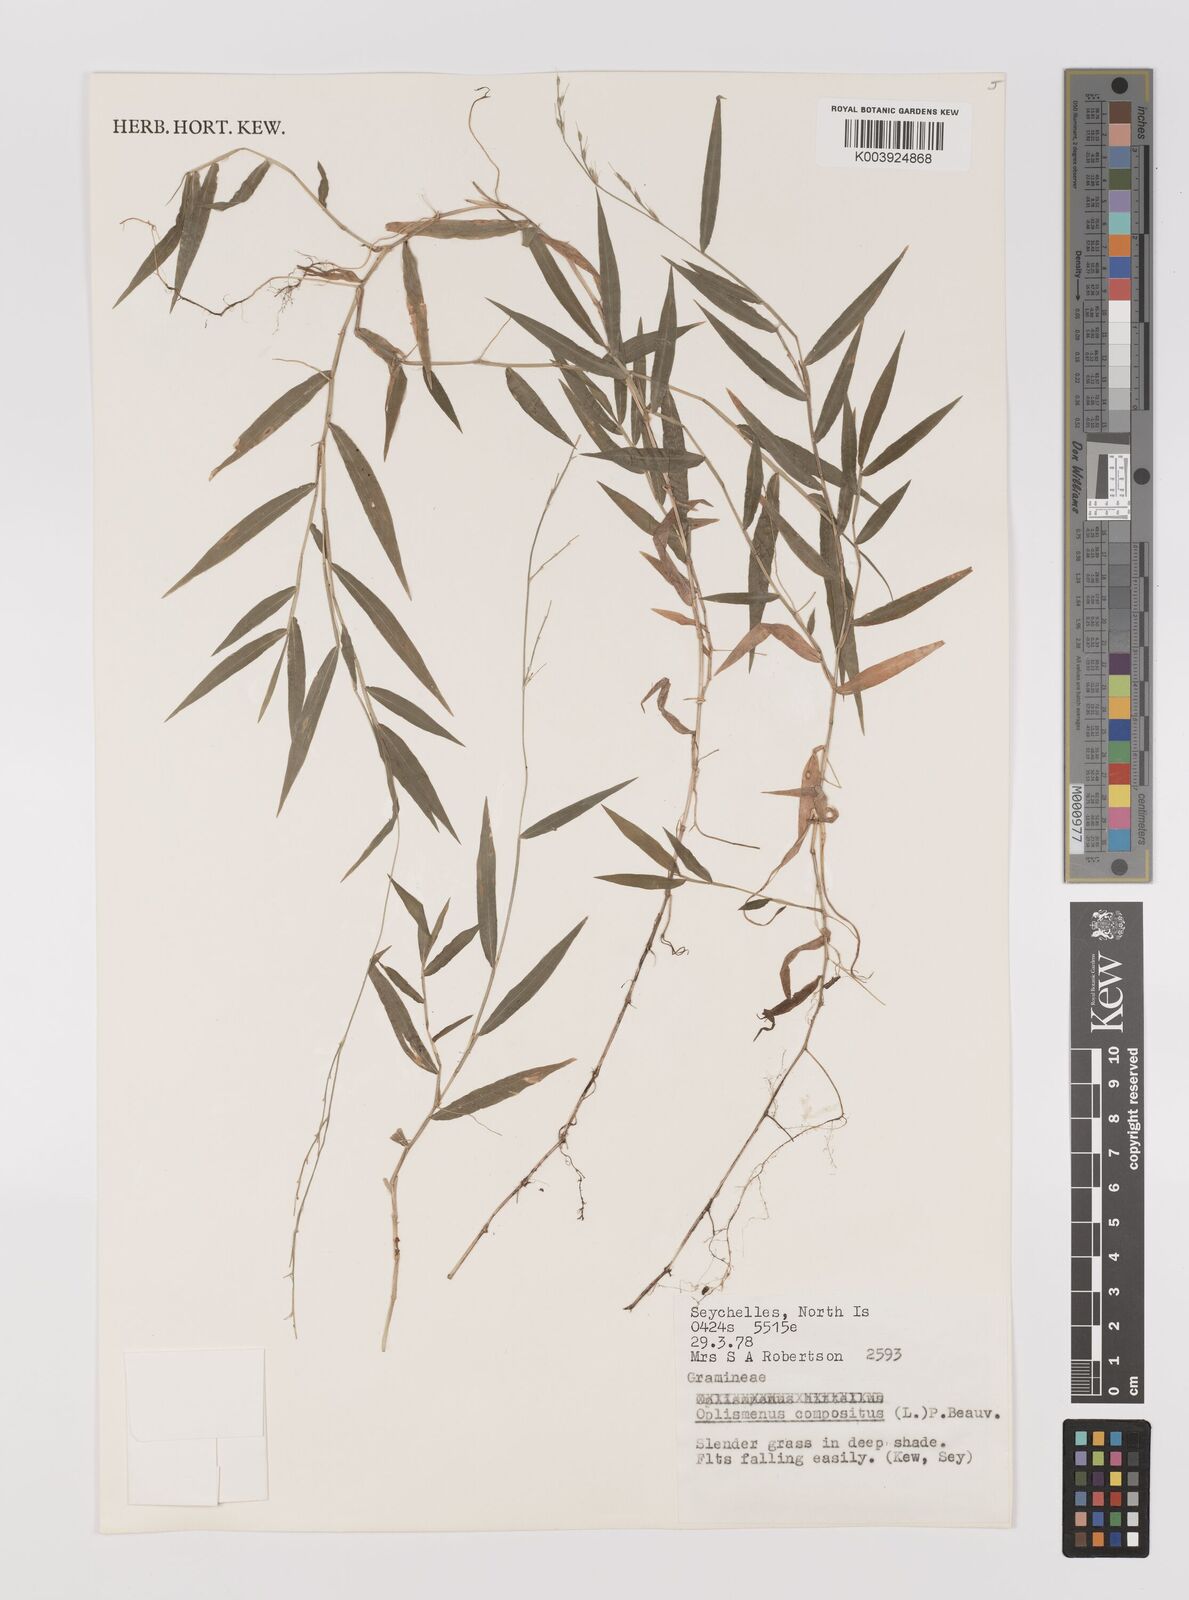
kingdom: Plantae
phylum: Tracheophyta
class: Liliopsida
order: Poales
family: Poaceae
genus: Oplismenus
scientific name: Oplismenus compositus
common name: Running mountain grass
